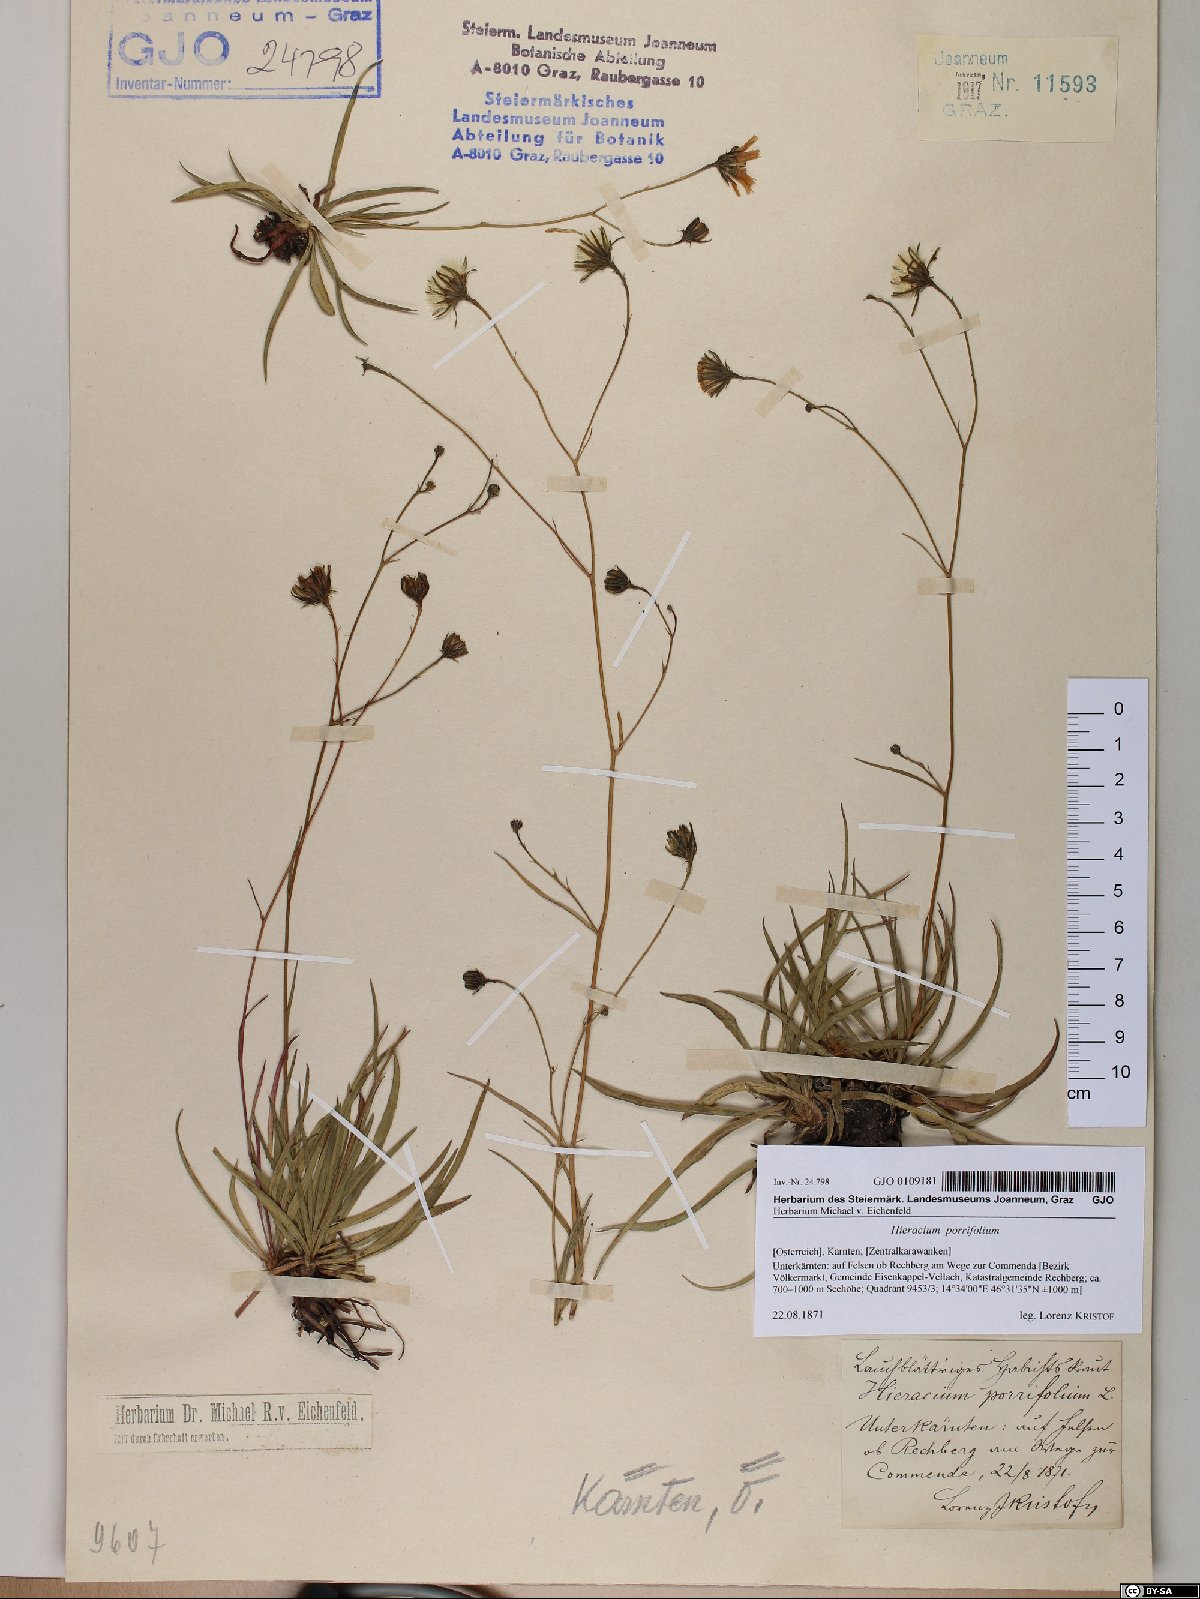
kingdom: Plantae
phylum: Tracheophyta
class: Magnoliopsida
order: Asterales
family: Asteraceae
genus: Hieracium
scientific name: Hieracium porrifolium
